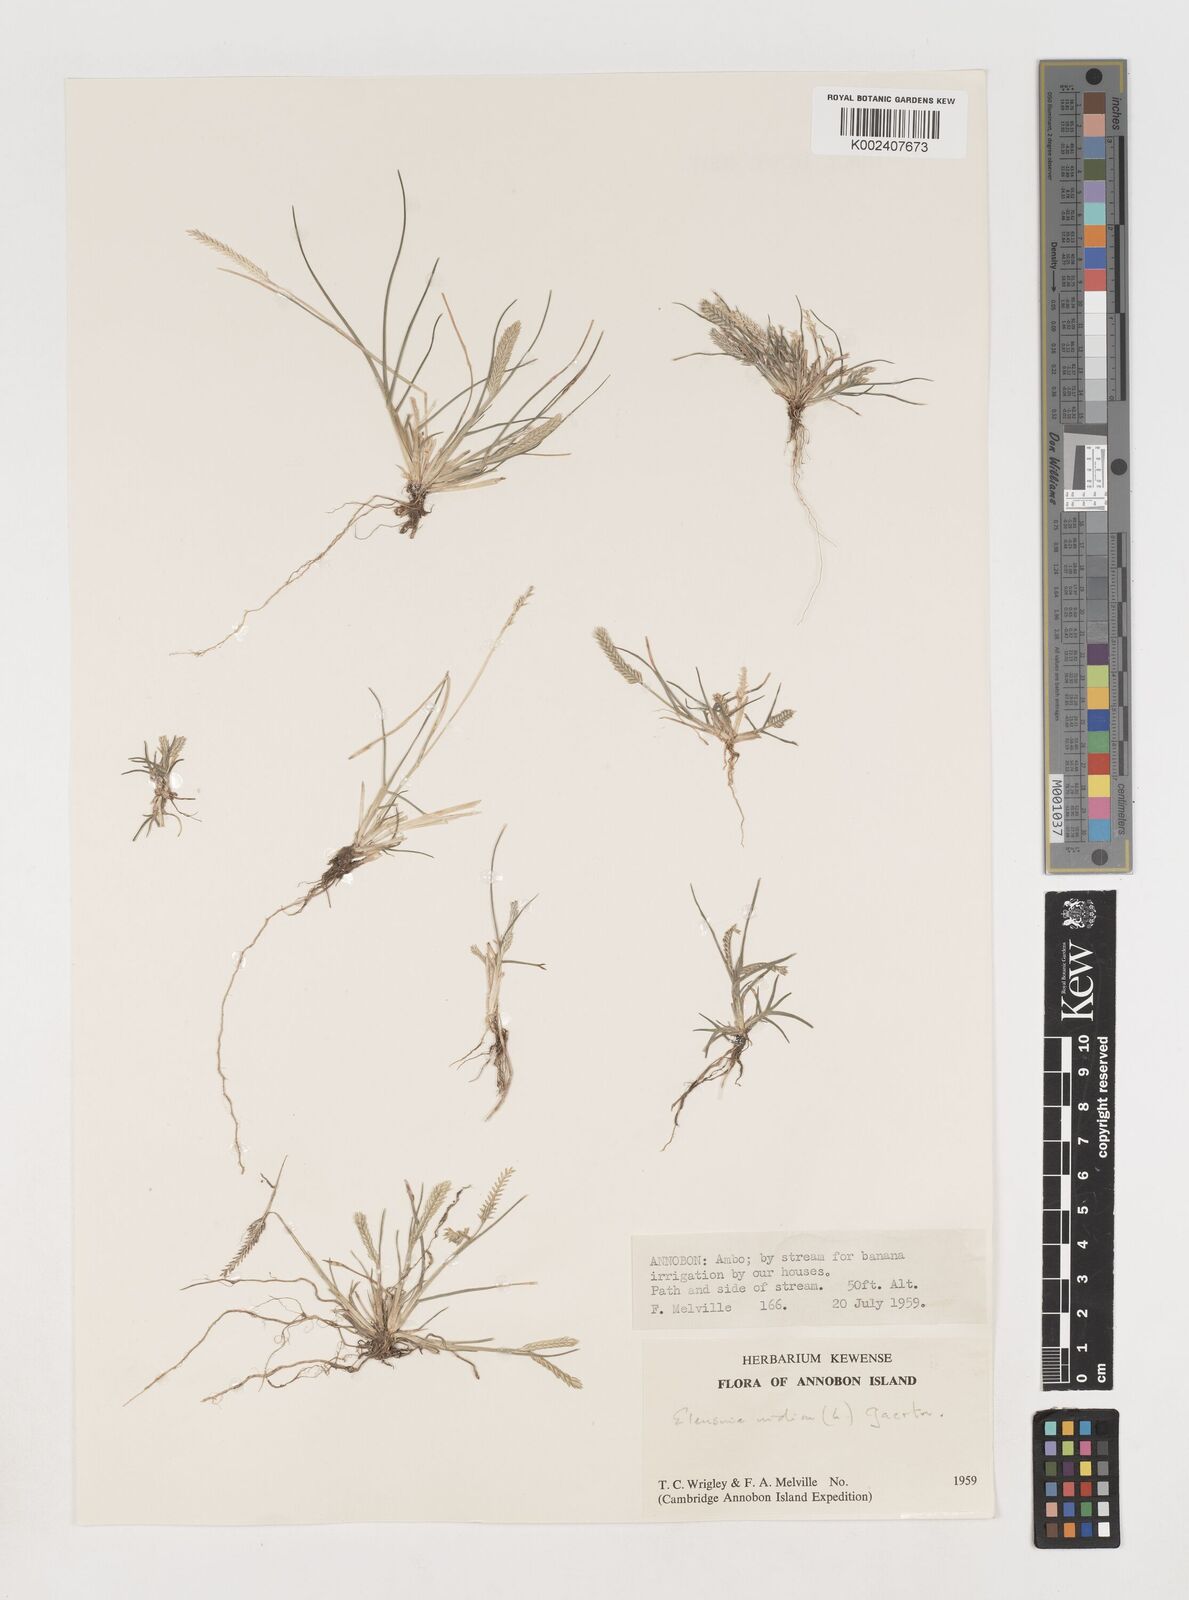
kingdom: Plantae
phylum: Tracheophyta
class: Liliopsida
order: Poales
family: Poaceae
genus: Eleusine
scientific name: Eleusine indica
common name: Yard-grass
